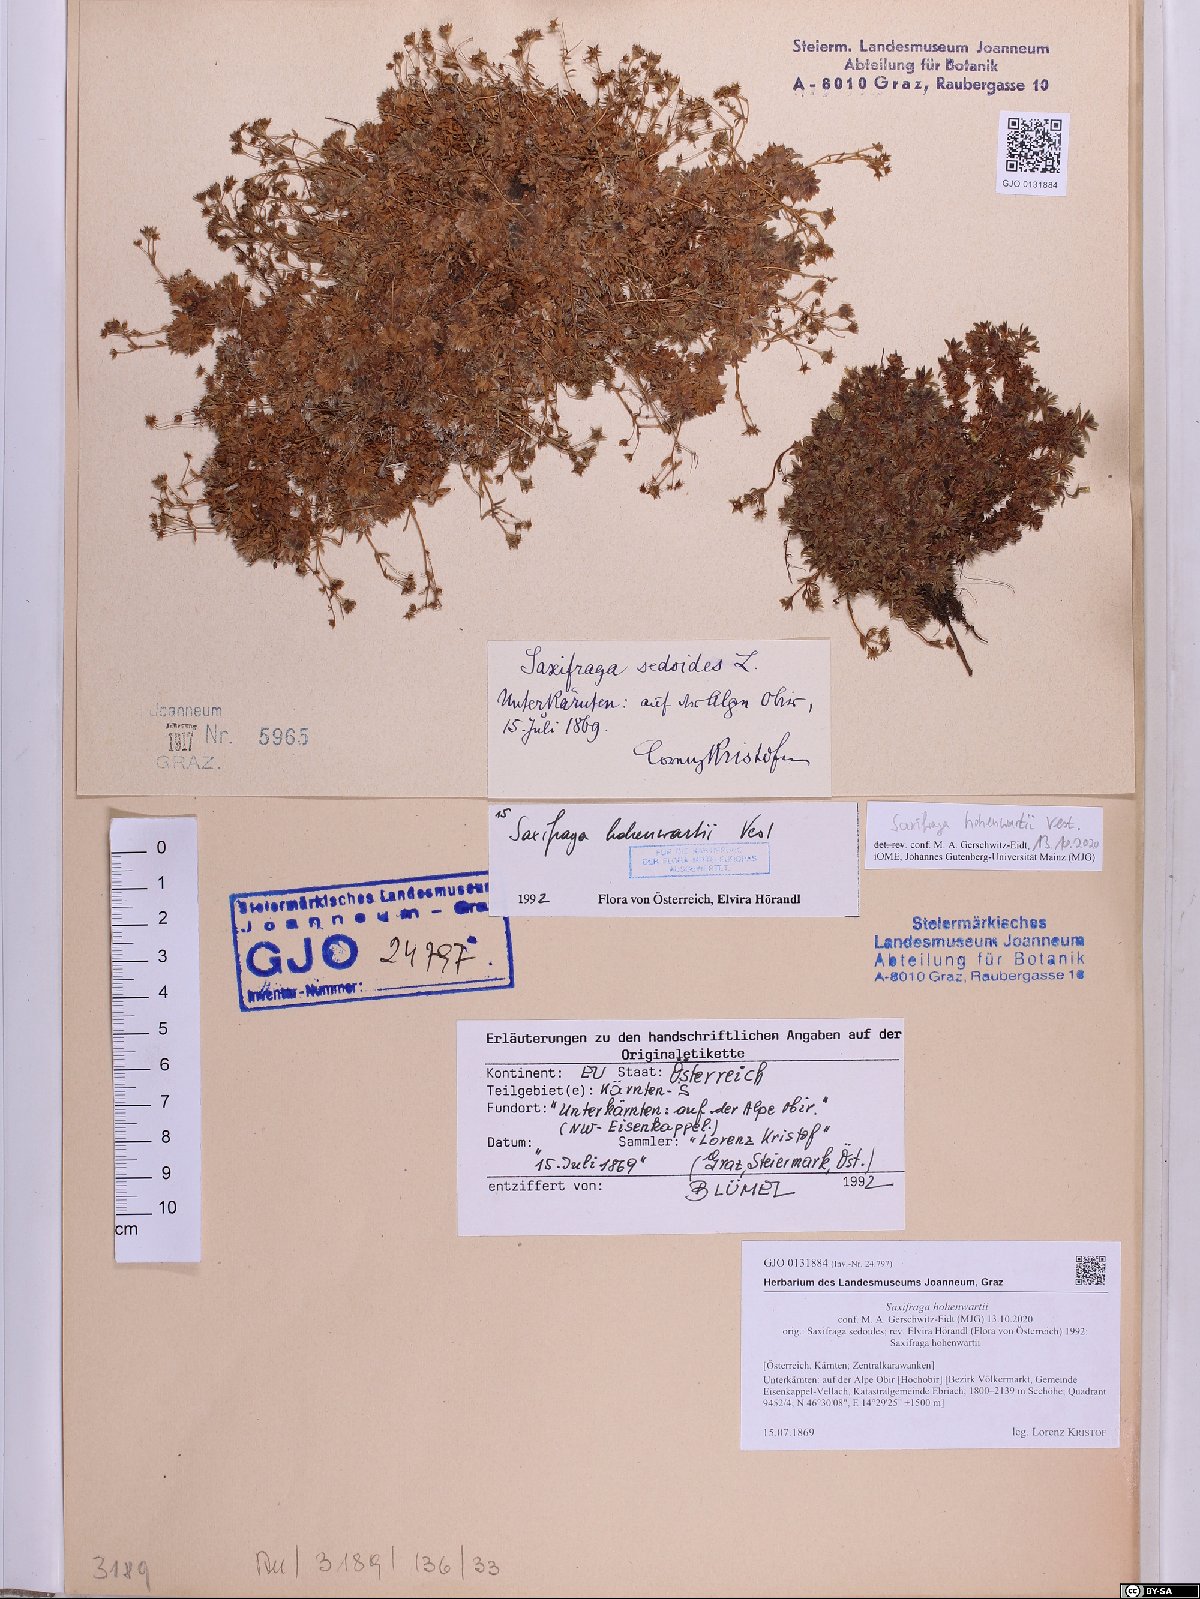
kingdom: Plantae
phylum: Tracheophyta
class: Magnoliopsida
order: Saxifragales
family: Saxifragaceae
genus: Saxifraga
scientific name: Saxifraga hohenwartii
